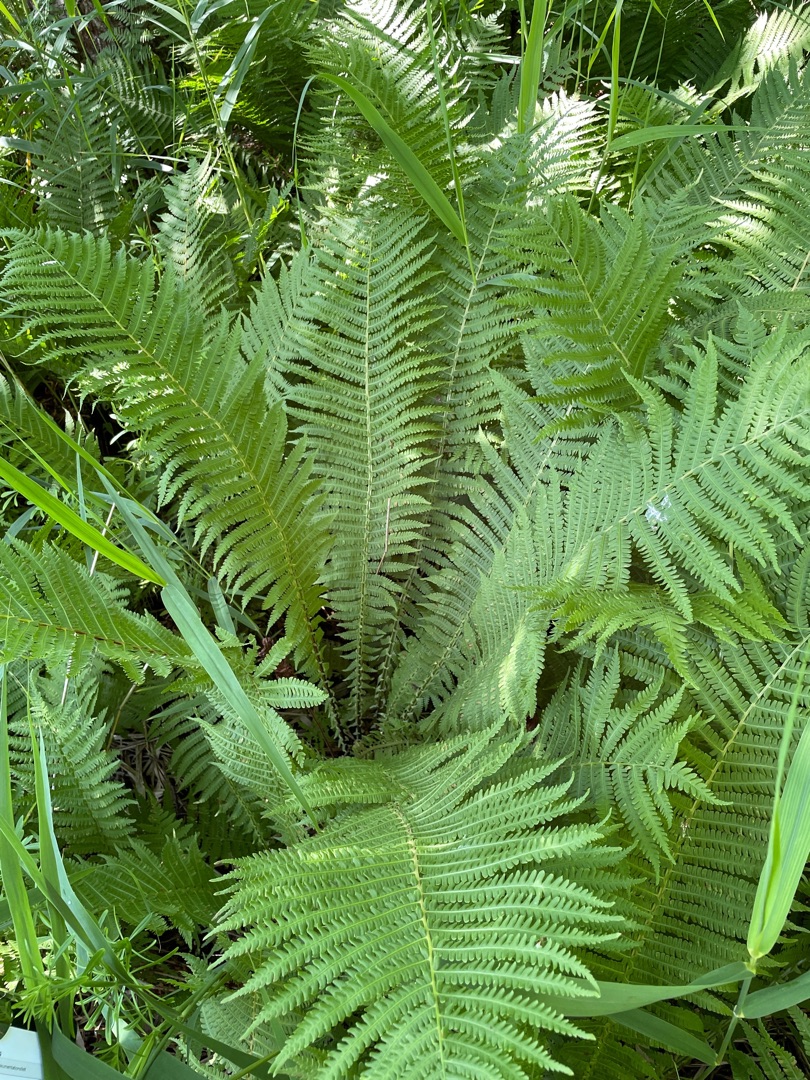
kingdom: Plantae
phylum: Tracheophyta
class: Polypodiopsida
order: Polypodiales
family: Onocleaceae
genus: Matteuccia
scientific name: Matteuccia struthiopteris
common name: Strudsvinge
